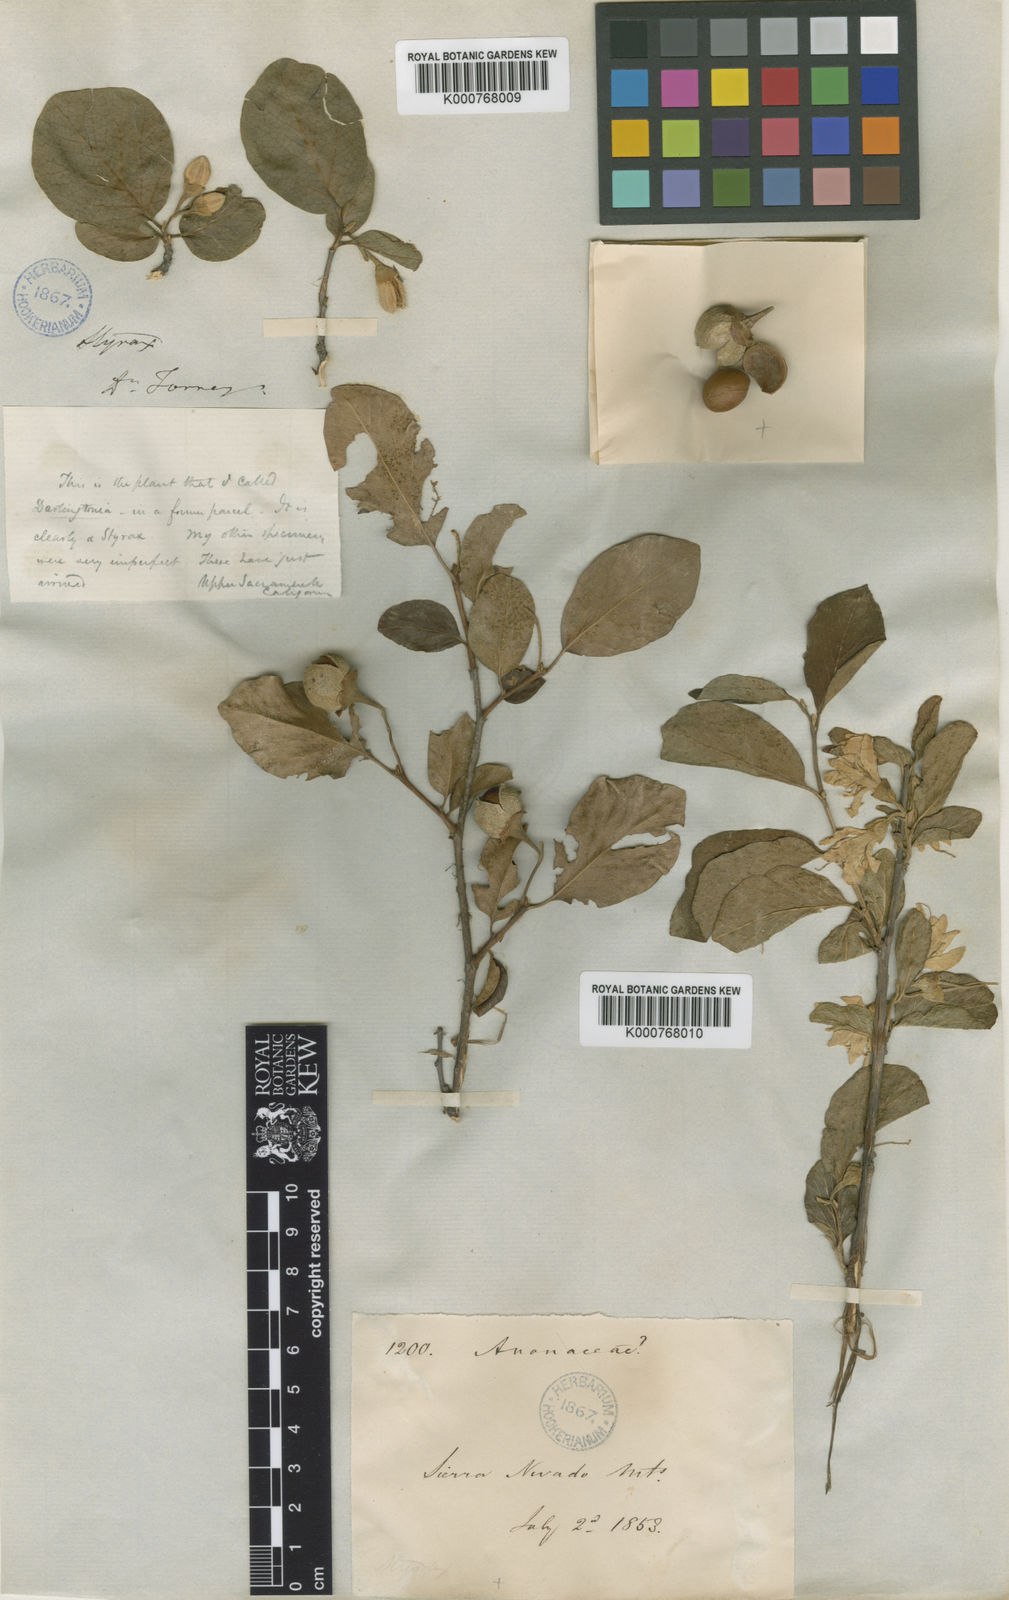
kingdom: Plantae
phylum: Tracheophyta
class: Magnoliopsida
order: Ericales
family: Styracaceae
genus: Styrax
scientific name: Styrax officinalis
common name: Storax
